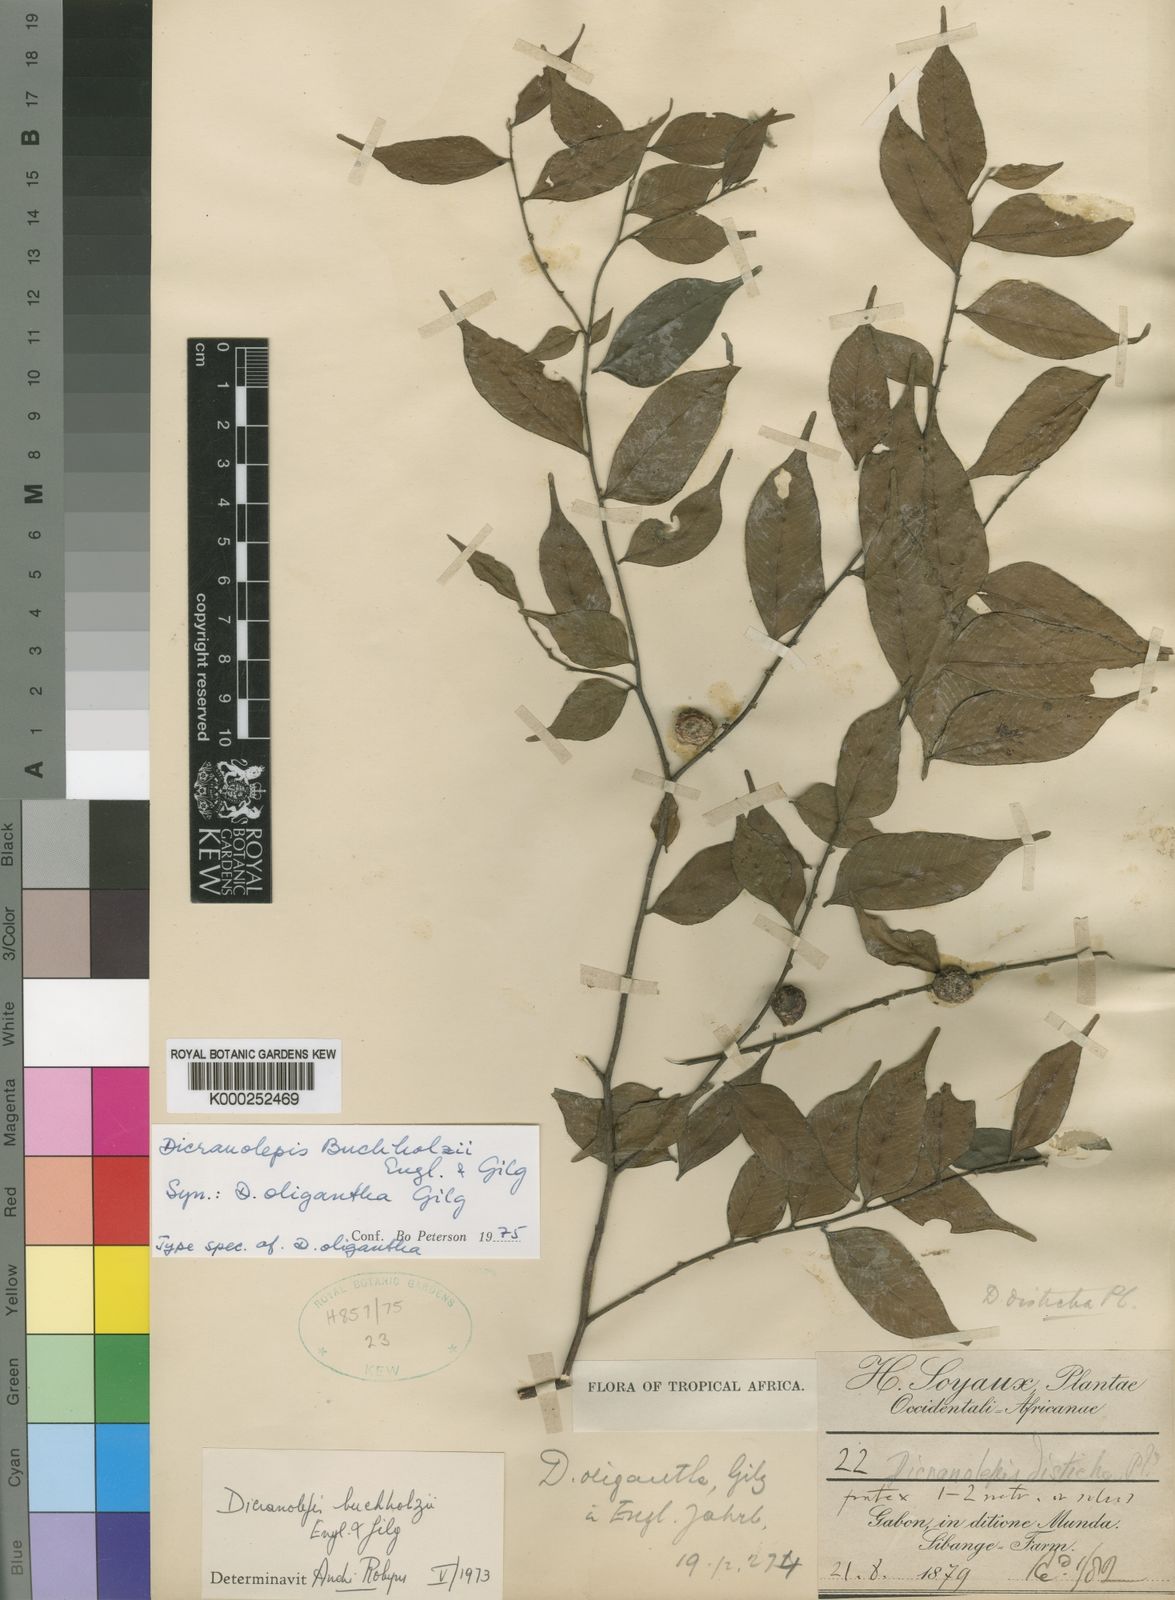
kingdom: Plantae
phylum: Tracheophyta
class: Magnoliopsida
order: Malvales
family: Thymelaeaceae
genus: Dicranolepis
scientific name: Dicranolepis buchholzii
